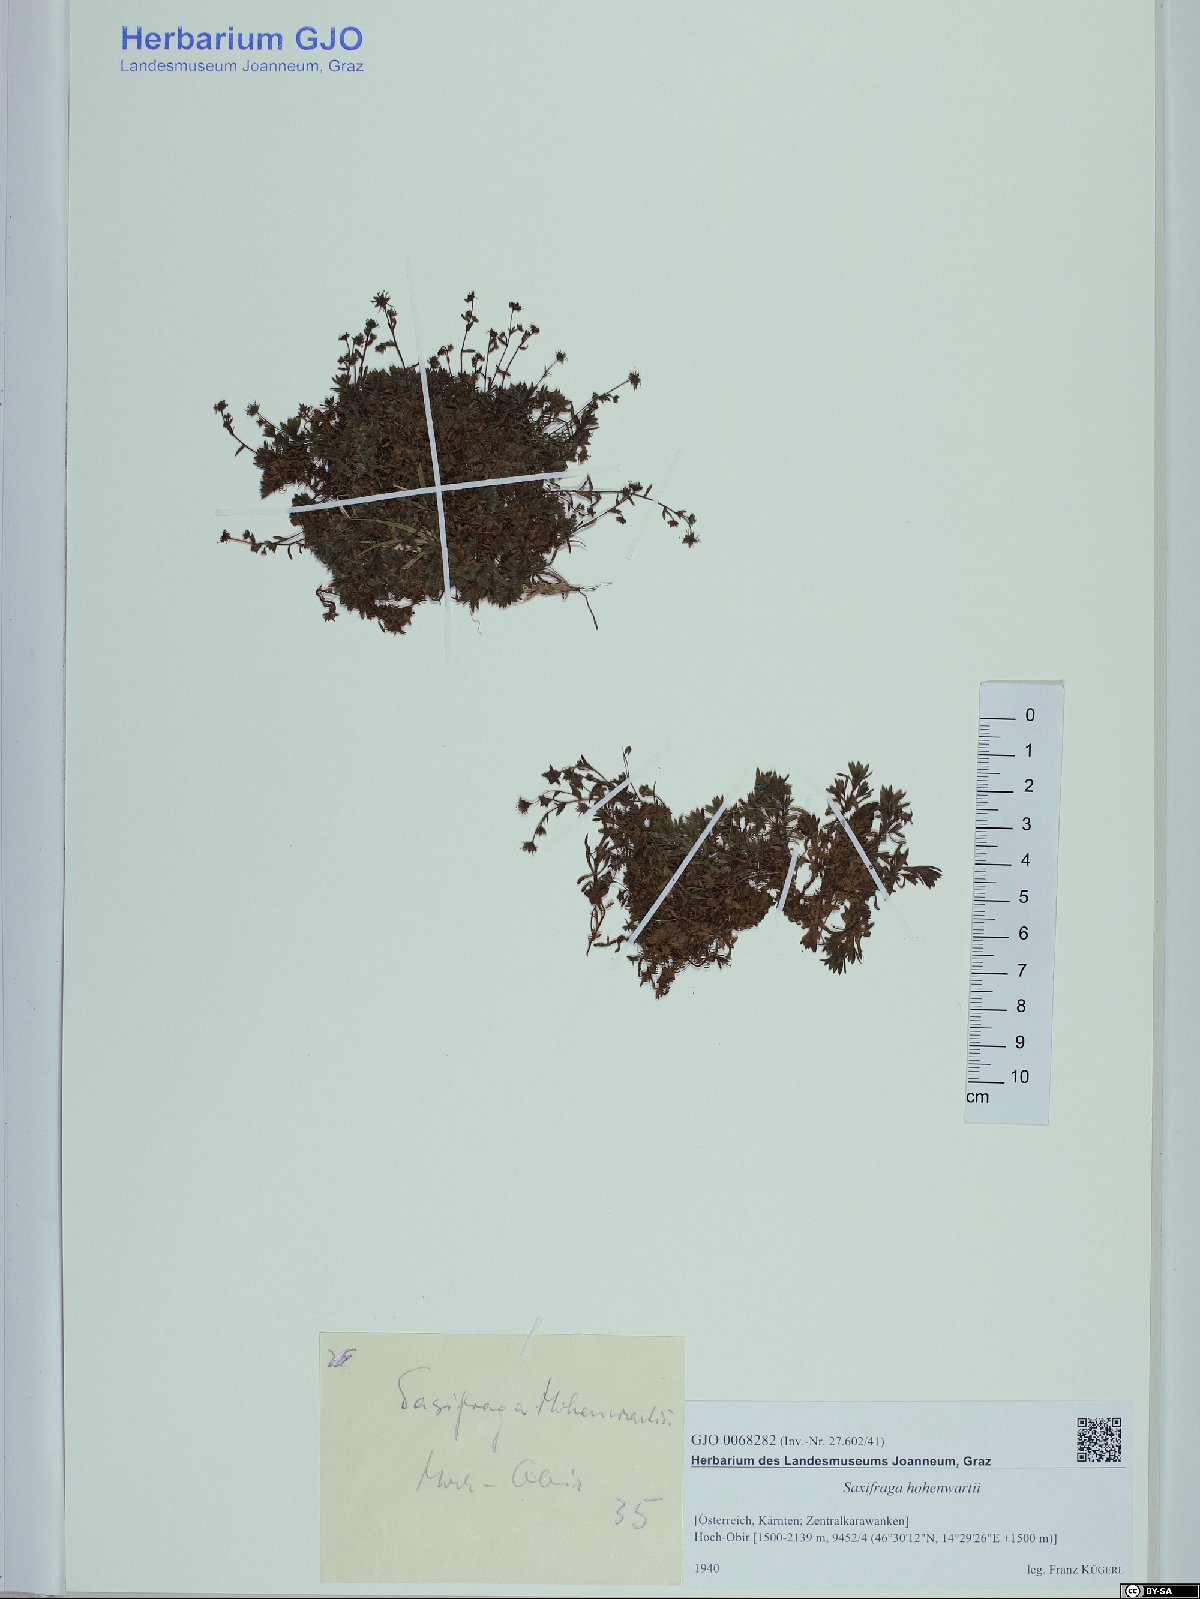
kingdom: Plantae
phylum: Tracheophyta
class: Magnoliopsida
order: Saxifragales
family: Saxifragaceae
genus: Saxifraga
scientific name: Saxifraga hohenwartii
